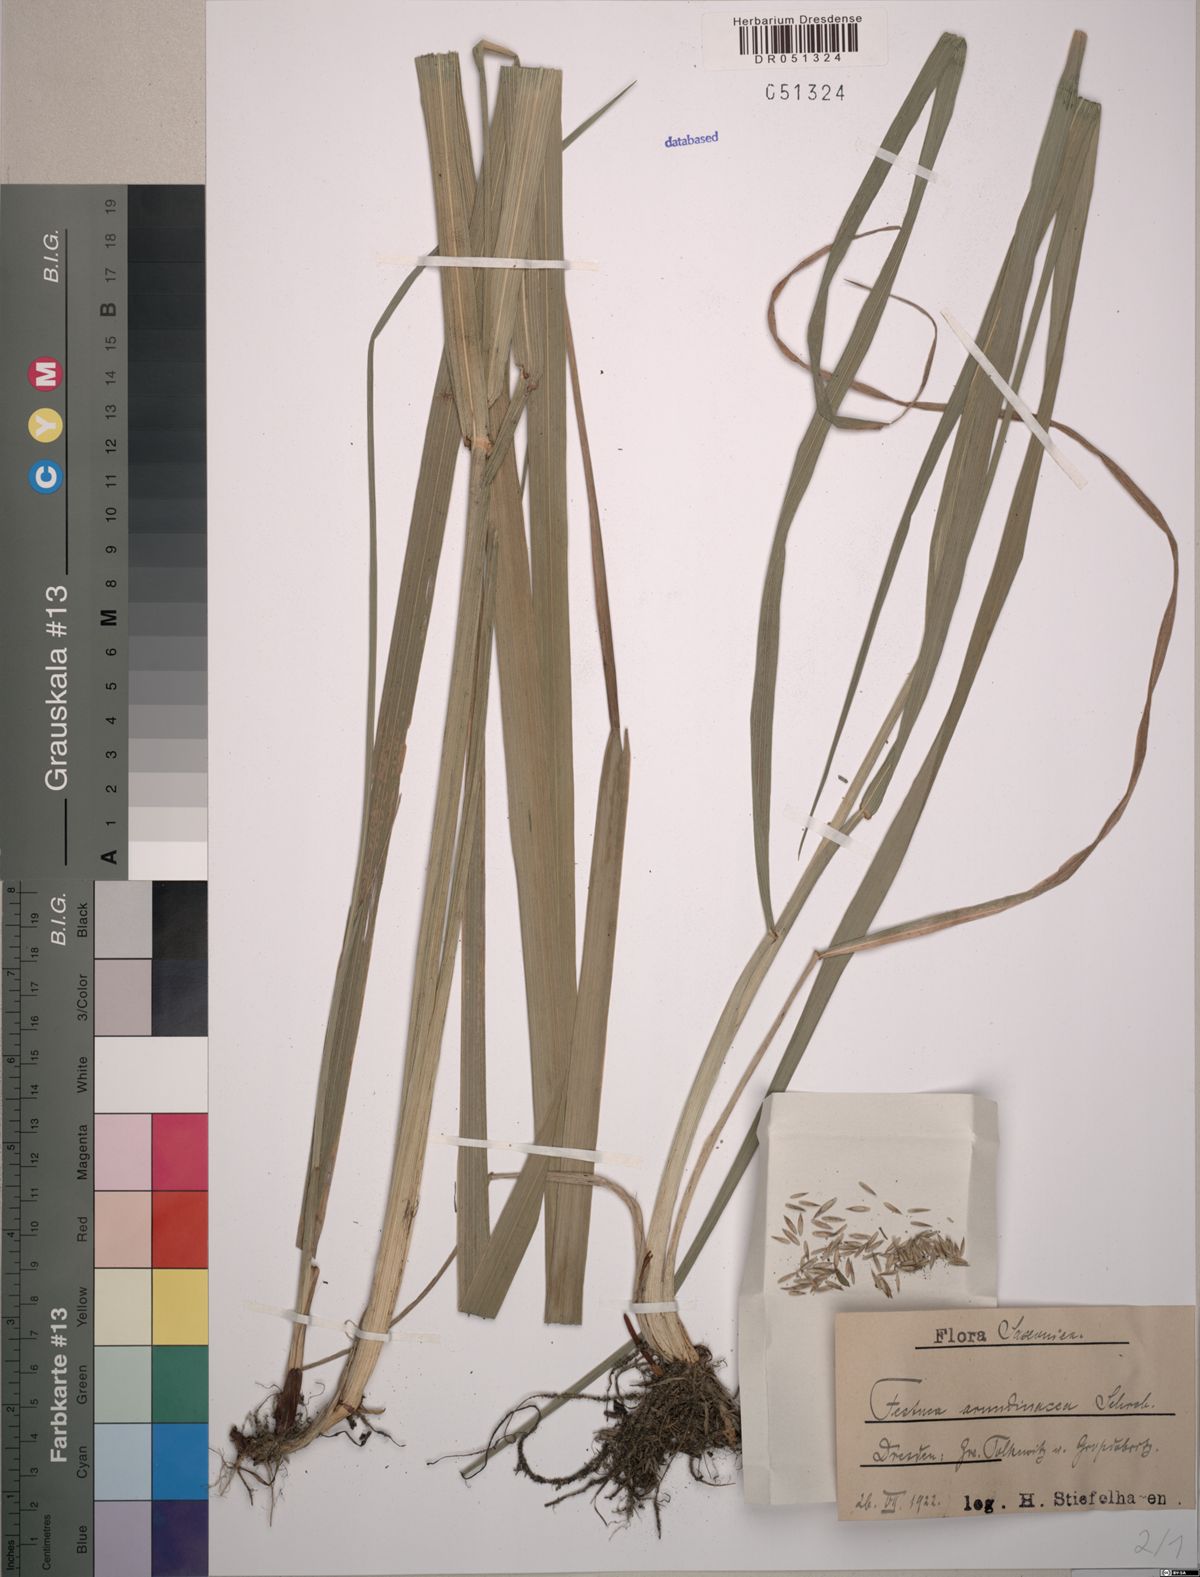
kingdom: Plantae
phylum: Tracheophyta
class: Liliopsida
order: Poales
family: Poaceae
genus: Lolium
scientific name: Lolium arundinaceum
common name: Reed fescue
